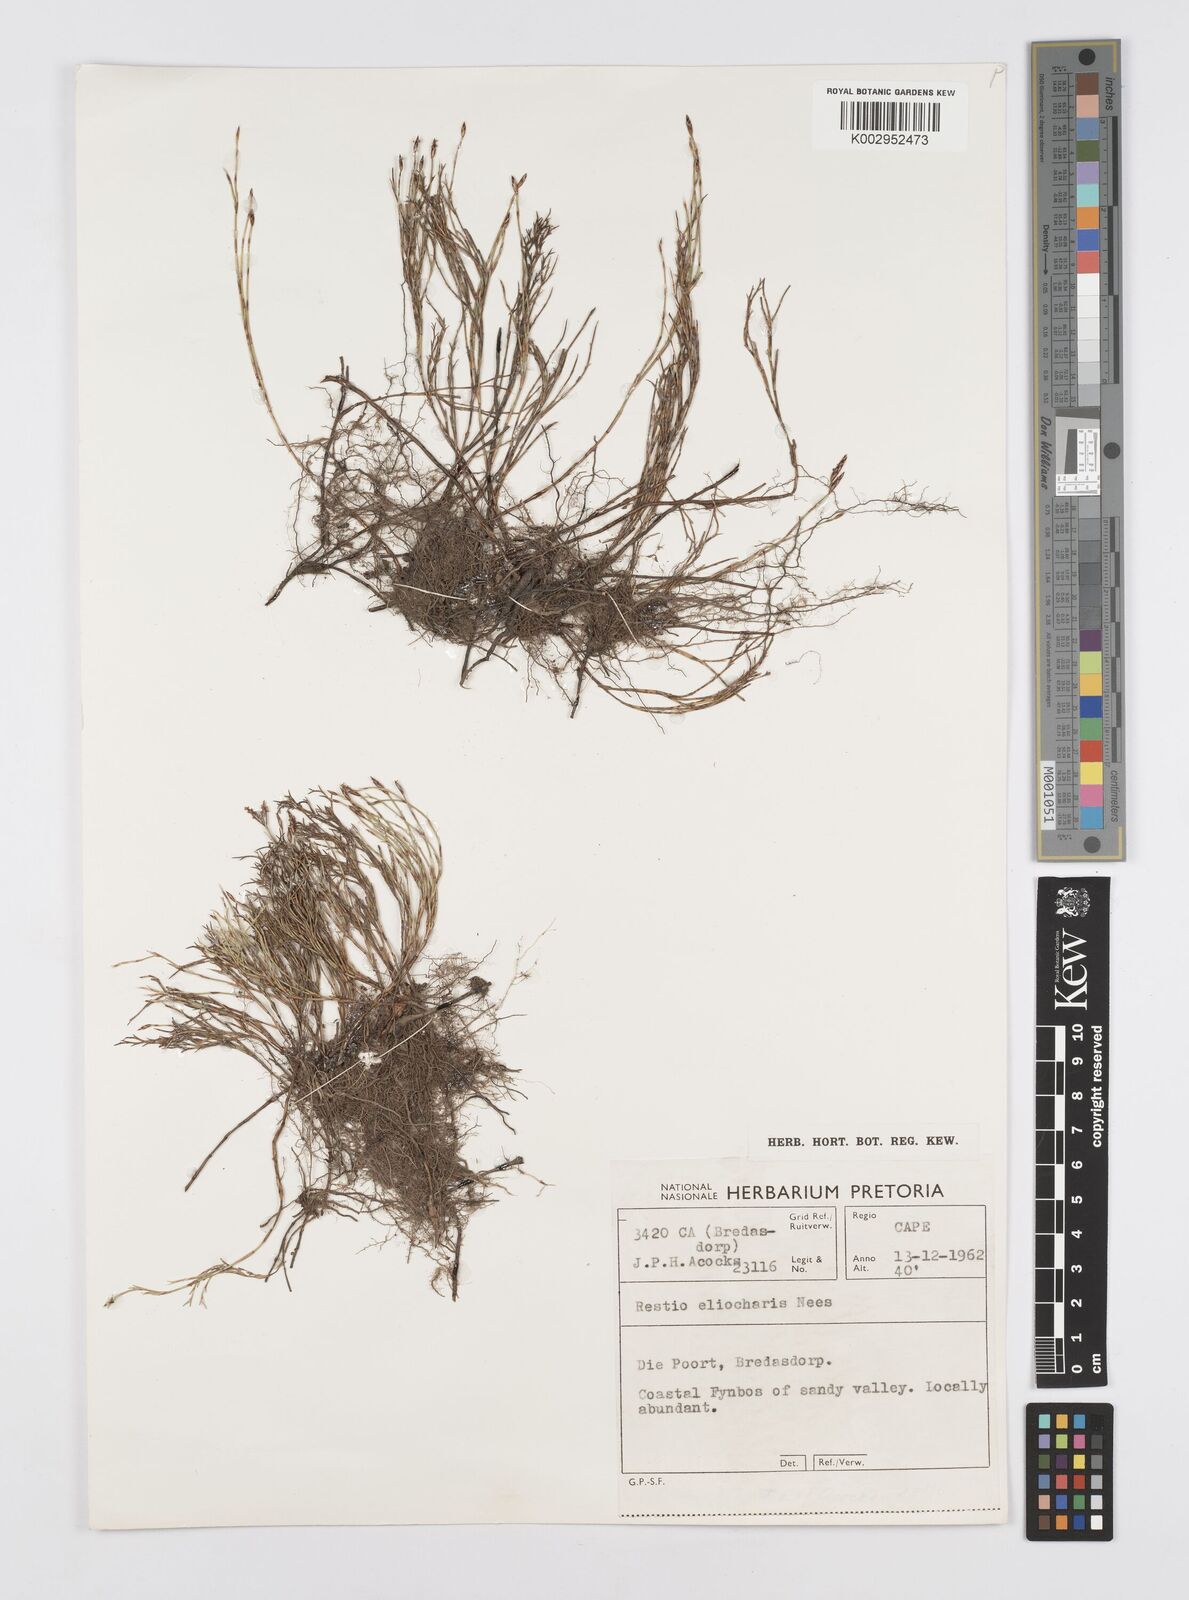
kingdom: Plantae
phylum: Tracheophyta
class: Liliopsida
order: Poales
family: Restionaceae
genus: Restio
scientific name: Restio eleocharis
